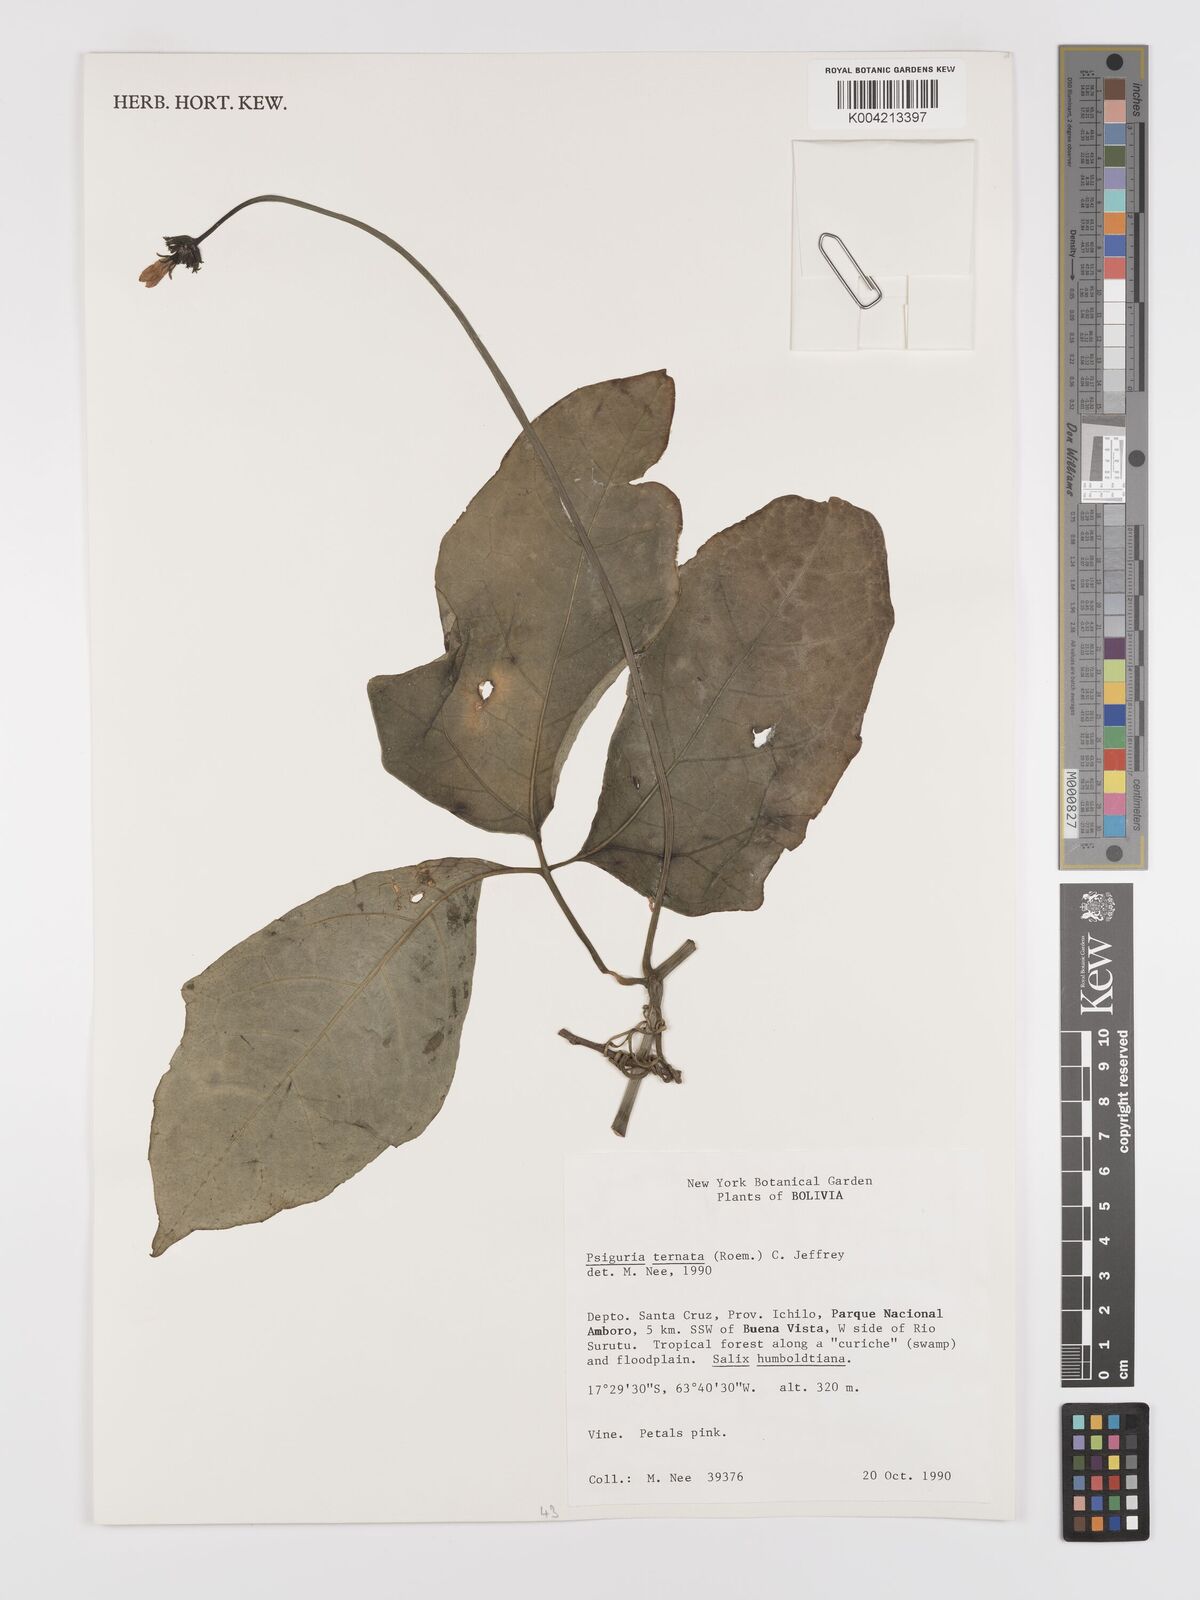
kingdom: Plantae
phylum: Tracheophyta
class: Magnoliopsida
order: Cucurbitales
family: Cucurbitaceae
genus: Psiguria
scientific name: Psiguria ternata
